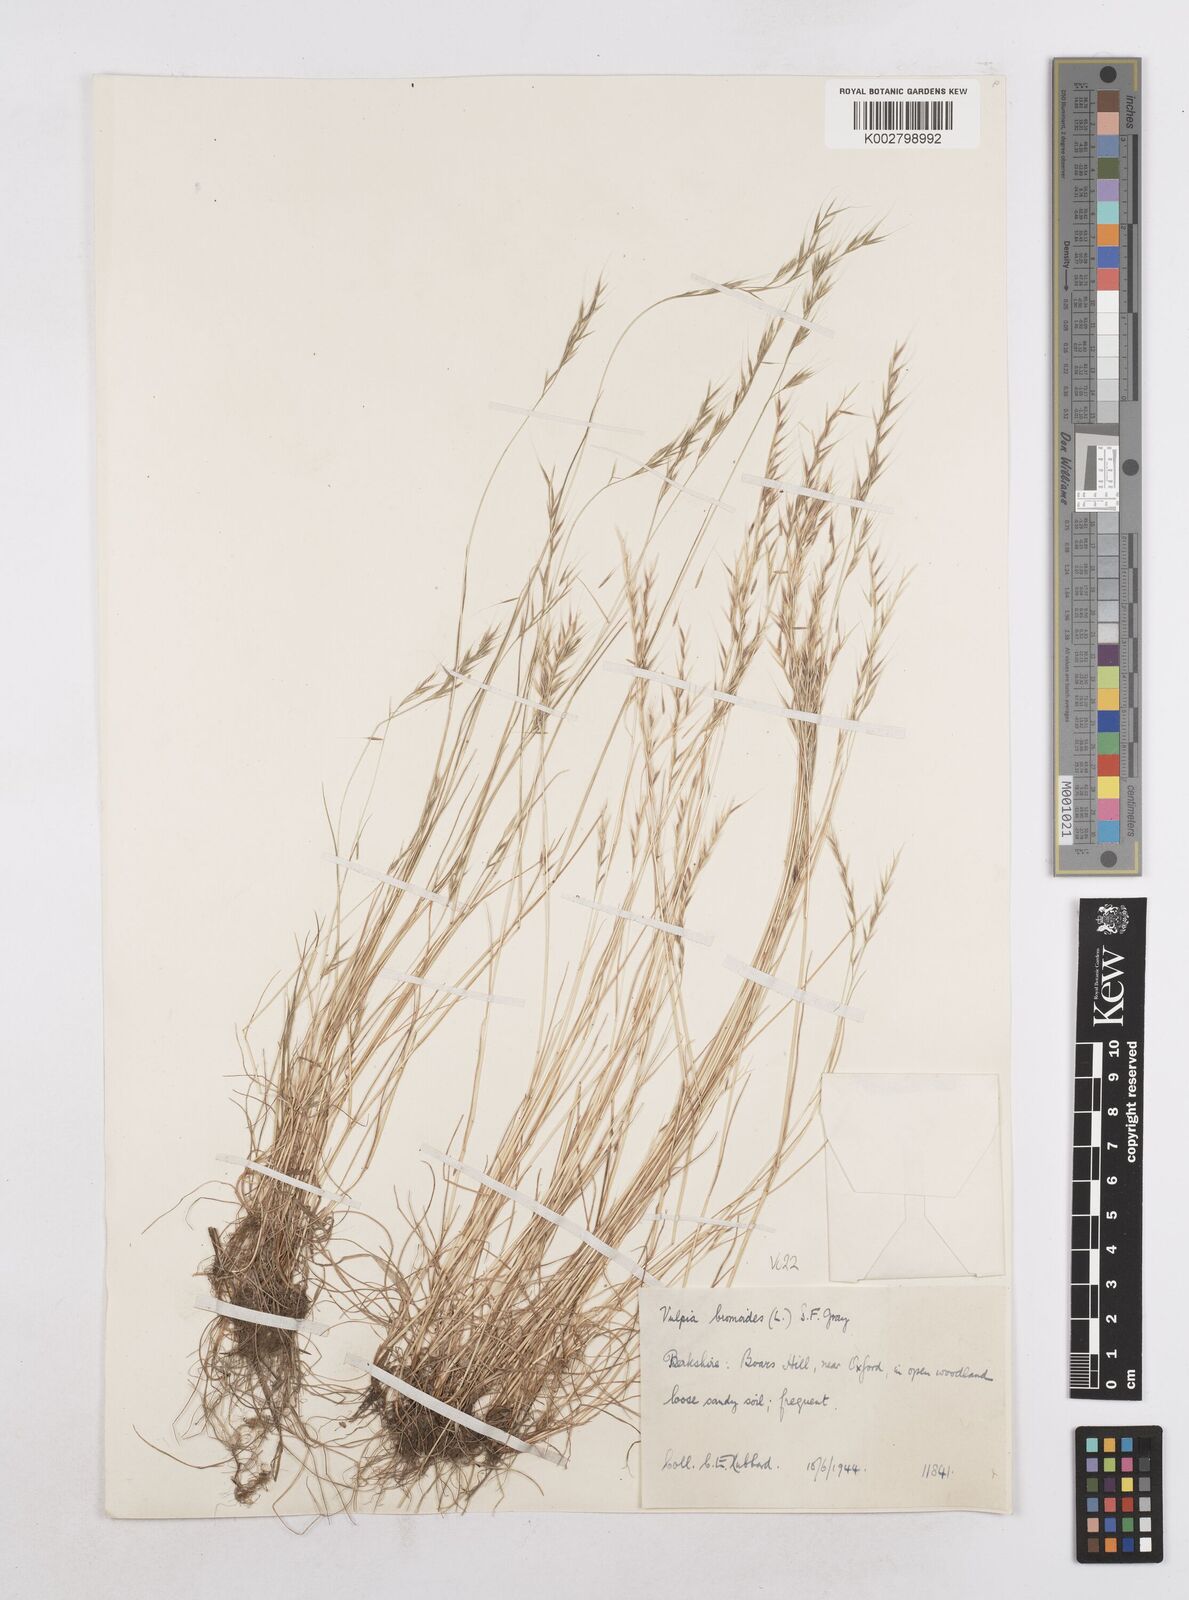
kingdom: Plantae
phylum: Tracheophyta
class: Liliopsida
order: Poales
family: Poaceae
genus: Festuca
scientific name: Festuca bromoides
